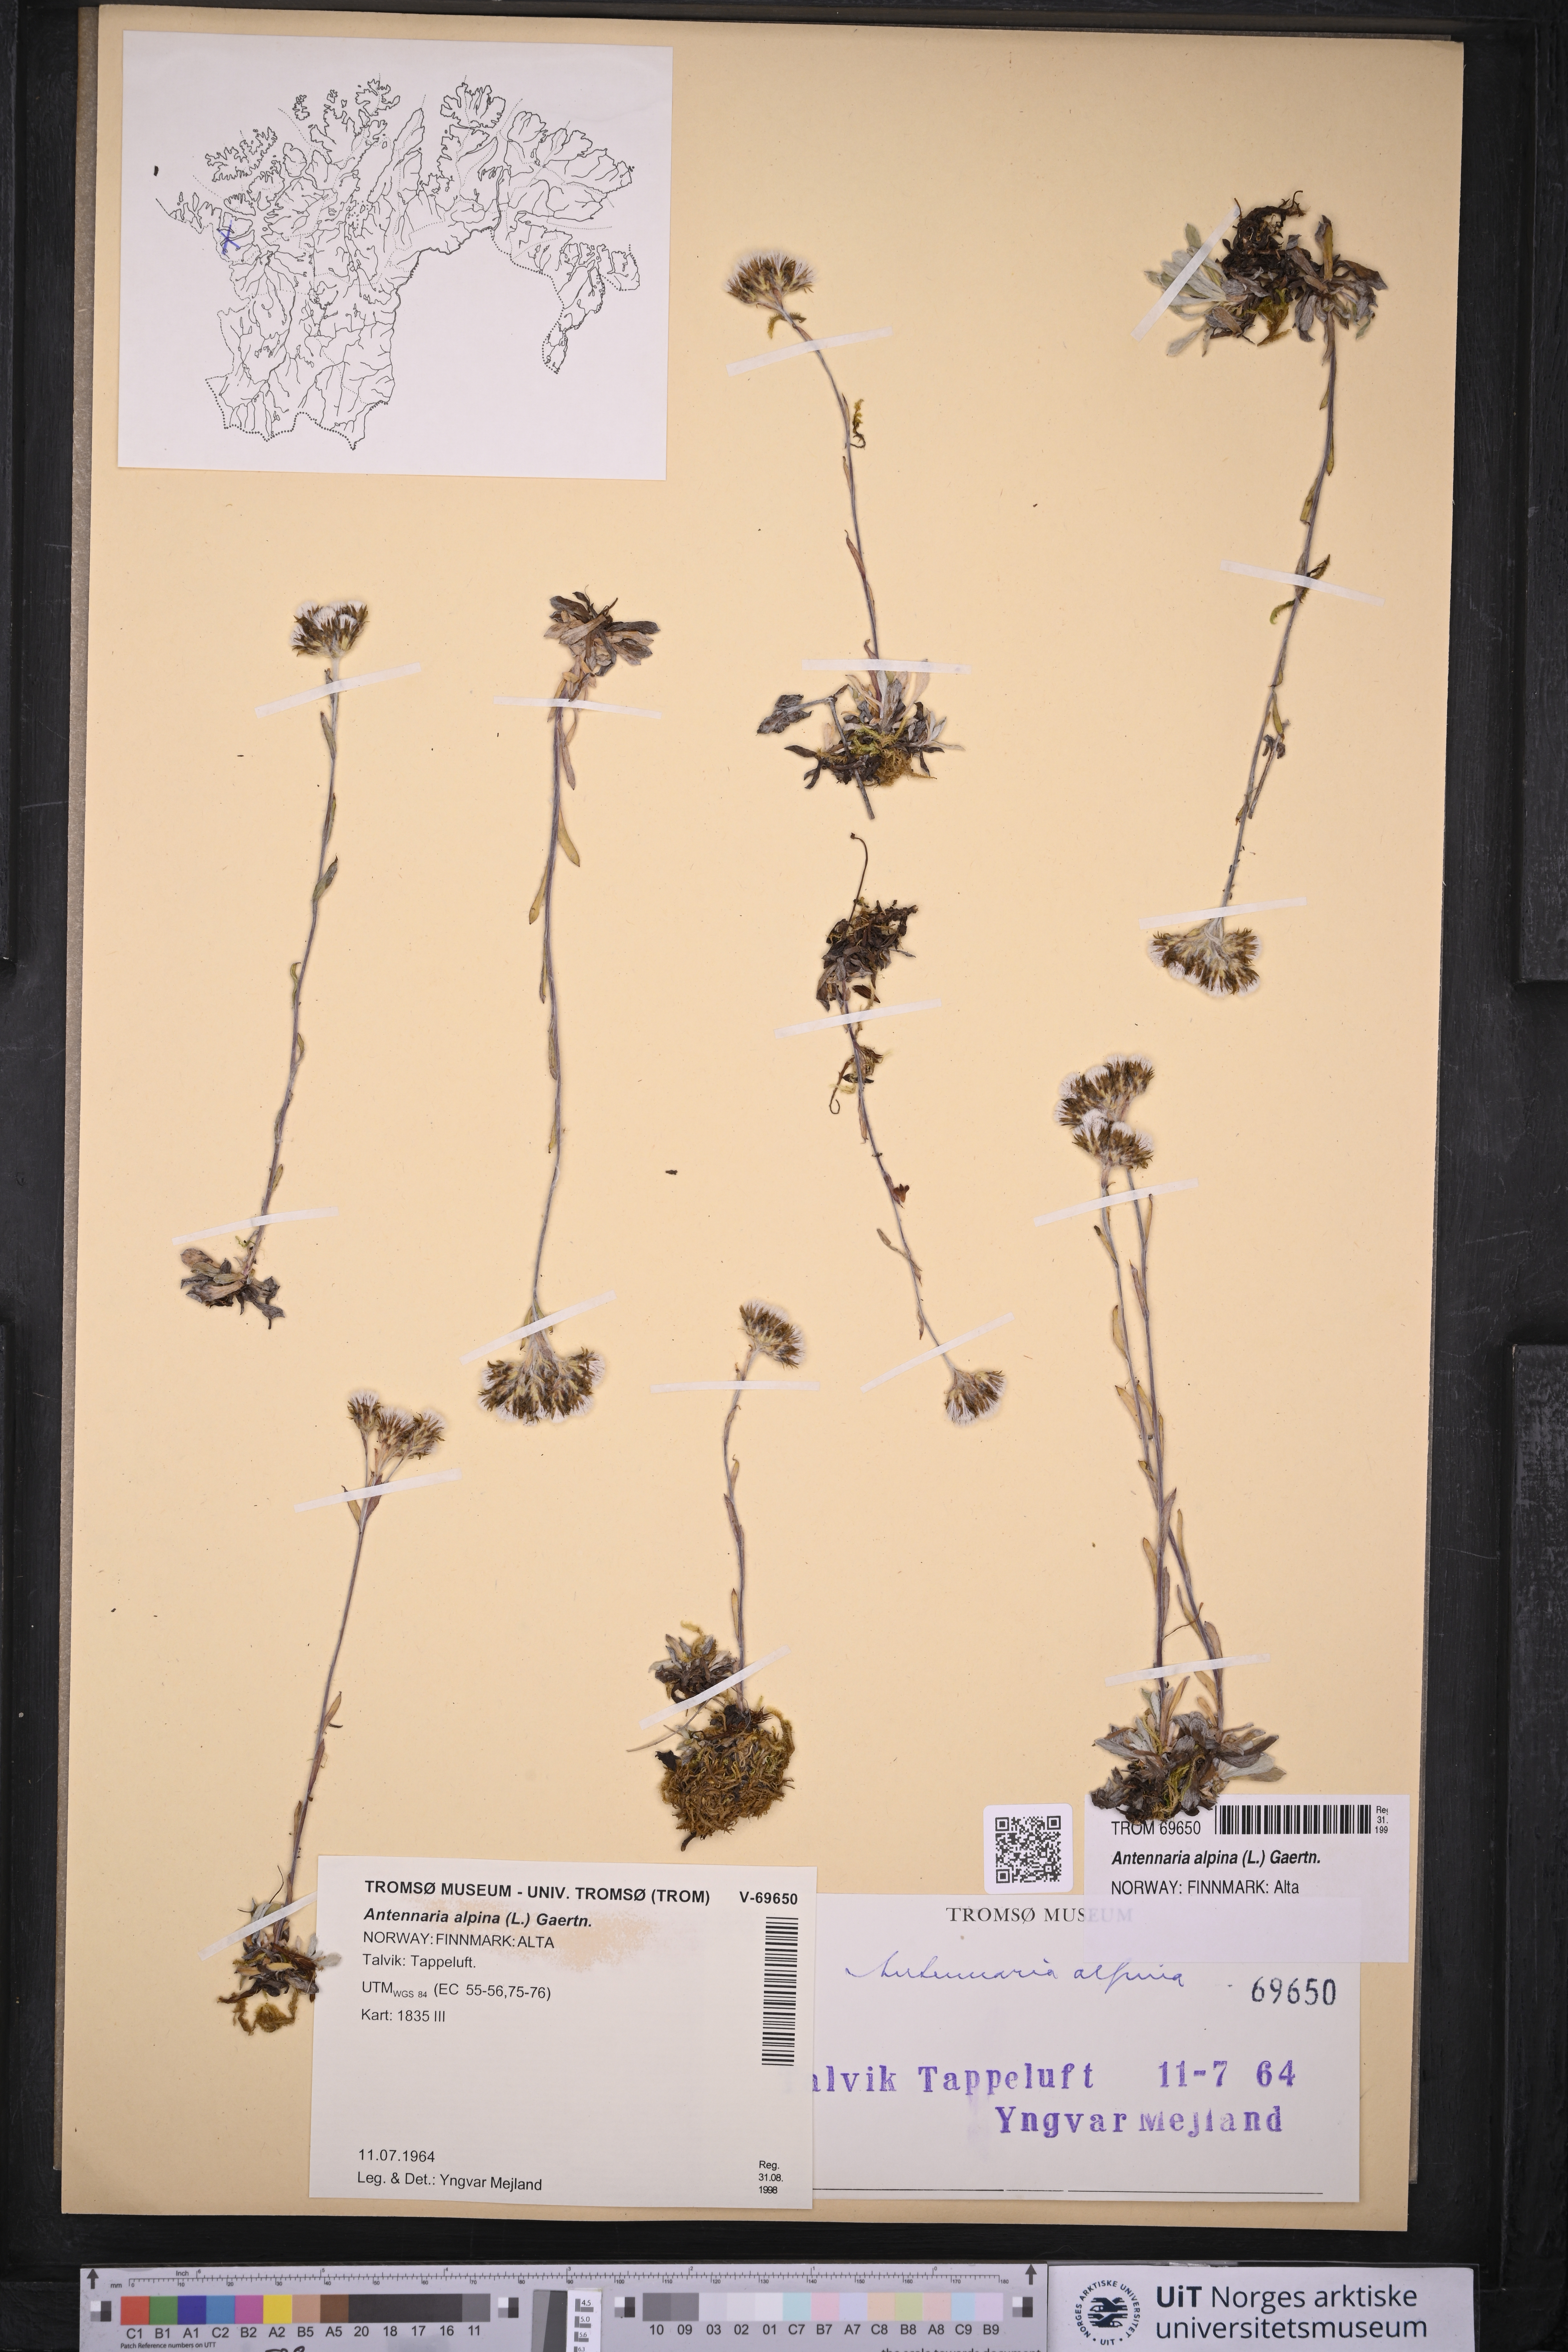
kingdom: Plantae
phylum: Tracheophyta
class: Magnoliopsida
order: Asterales
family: Asteraceae
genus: Antennaria
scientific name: Antennaria alpina
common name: Alpine pussytoes
